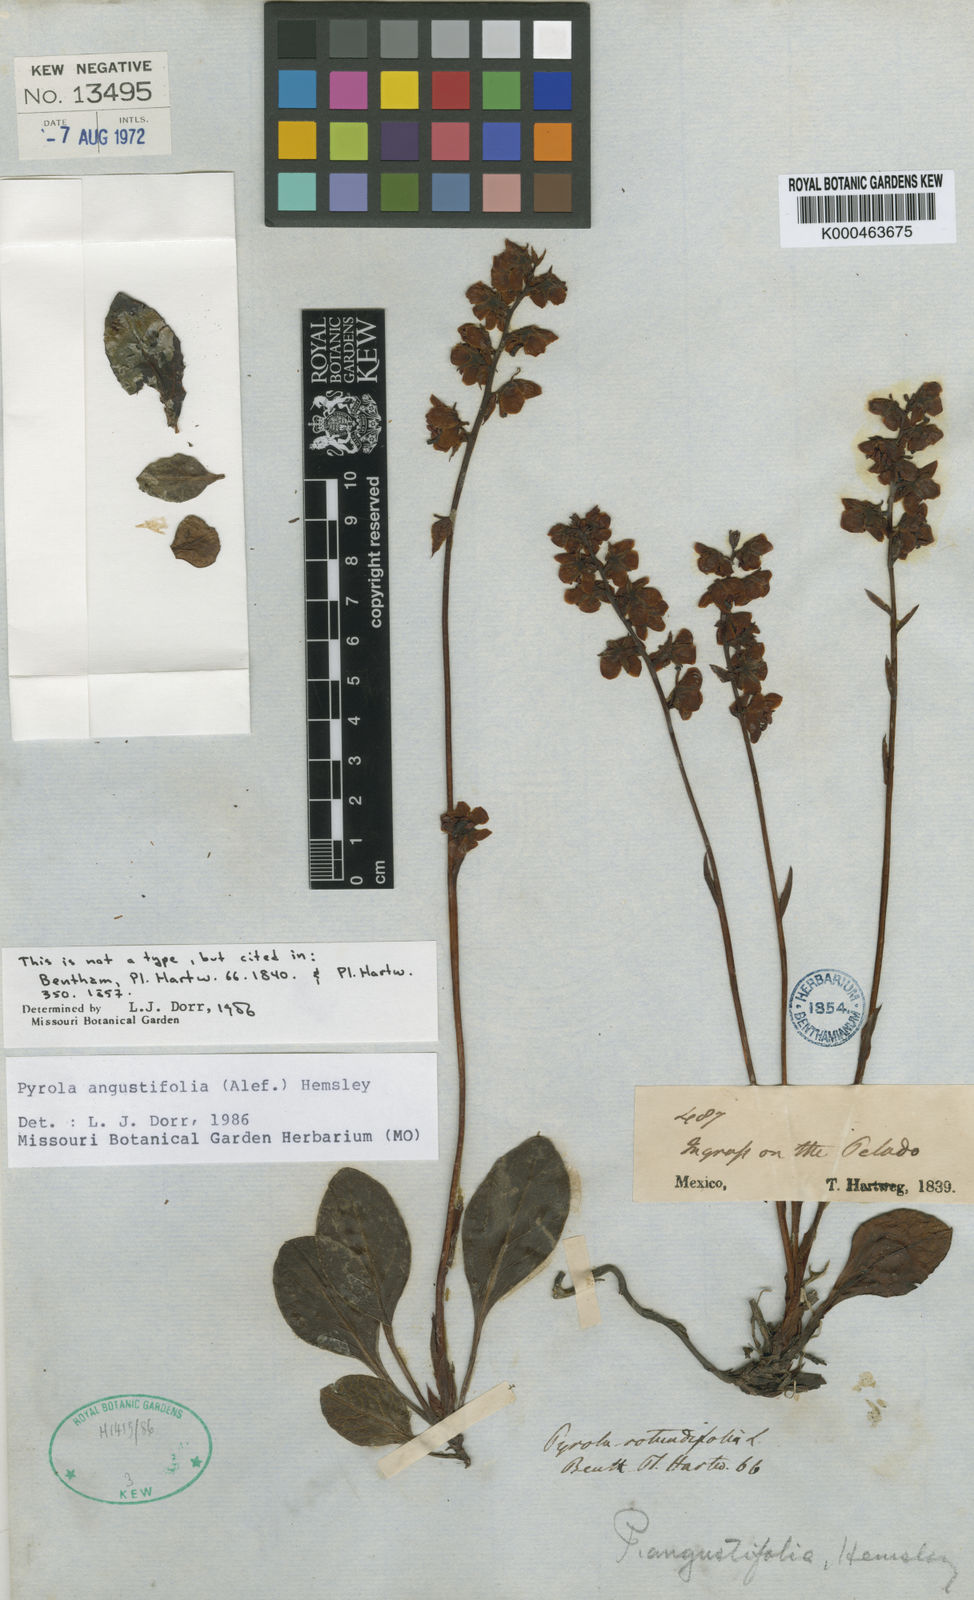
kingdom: Plantae
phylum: Tracheophyta
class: Magnoliopsida
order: Ericales
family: Ericaceae
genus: Pyrola
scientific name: Pyrola angustifolia
